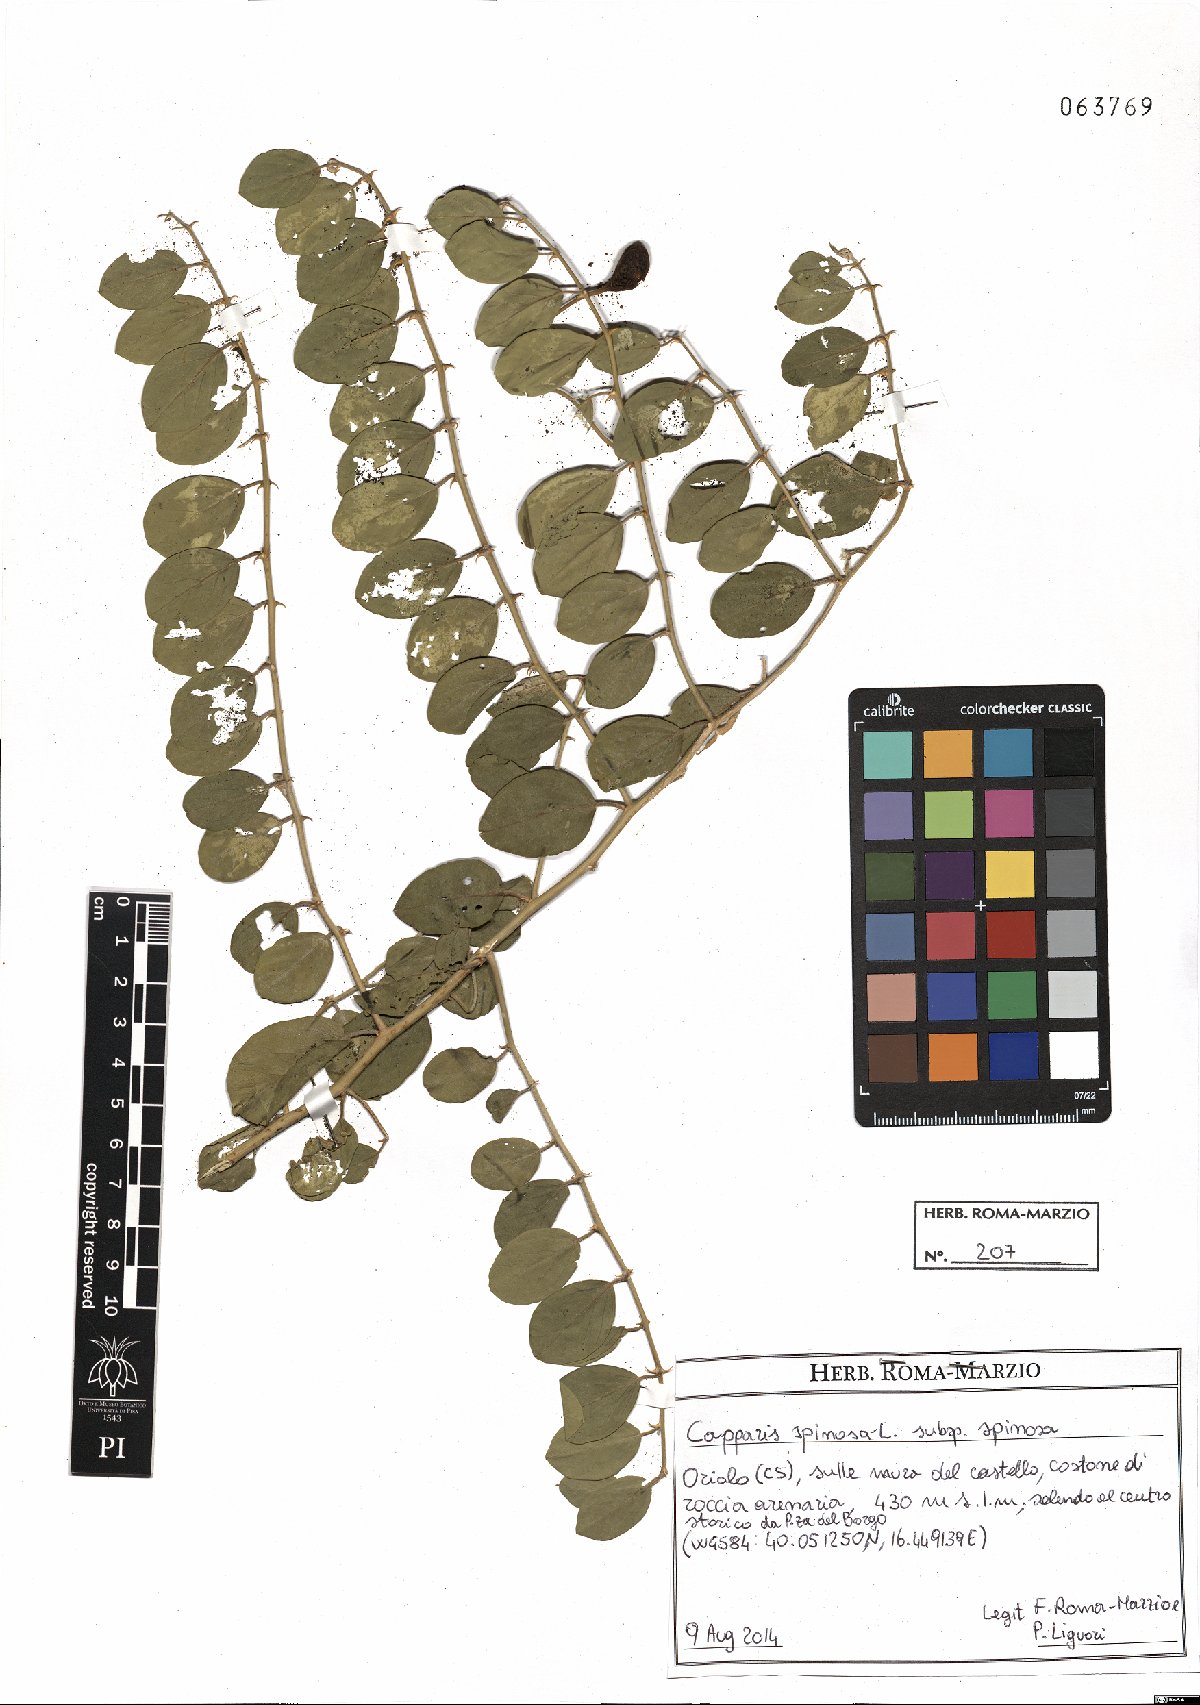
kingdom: Plantae
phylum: Tracheophyta
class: Magnoliopsida
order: Brassicales
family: Capparaceae
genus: Capparis
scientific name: Capparis spinosa
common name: Caper
